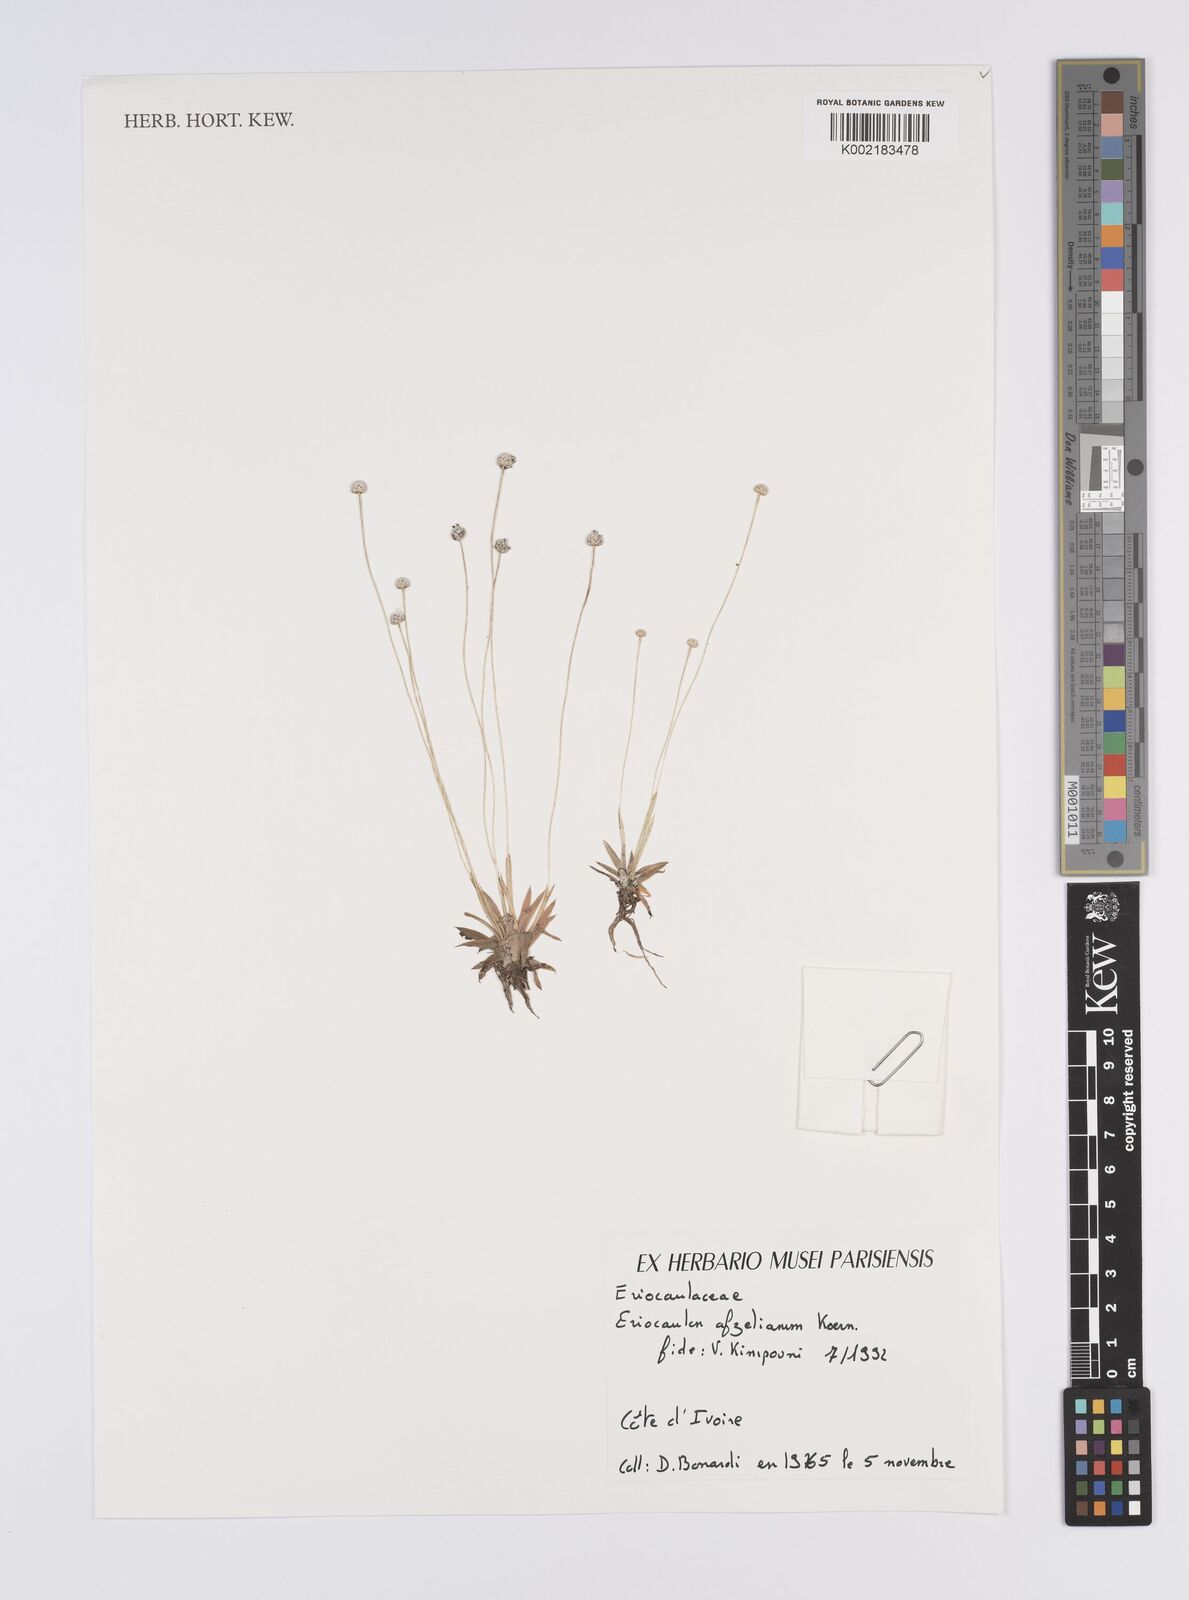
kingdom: Plantae
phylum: Tracheophyta
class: Liliopsida
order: Poales
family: Eriocaulaceae
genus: Eriocaulon
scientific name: Eriocaulon afzelianum
